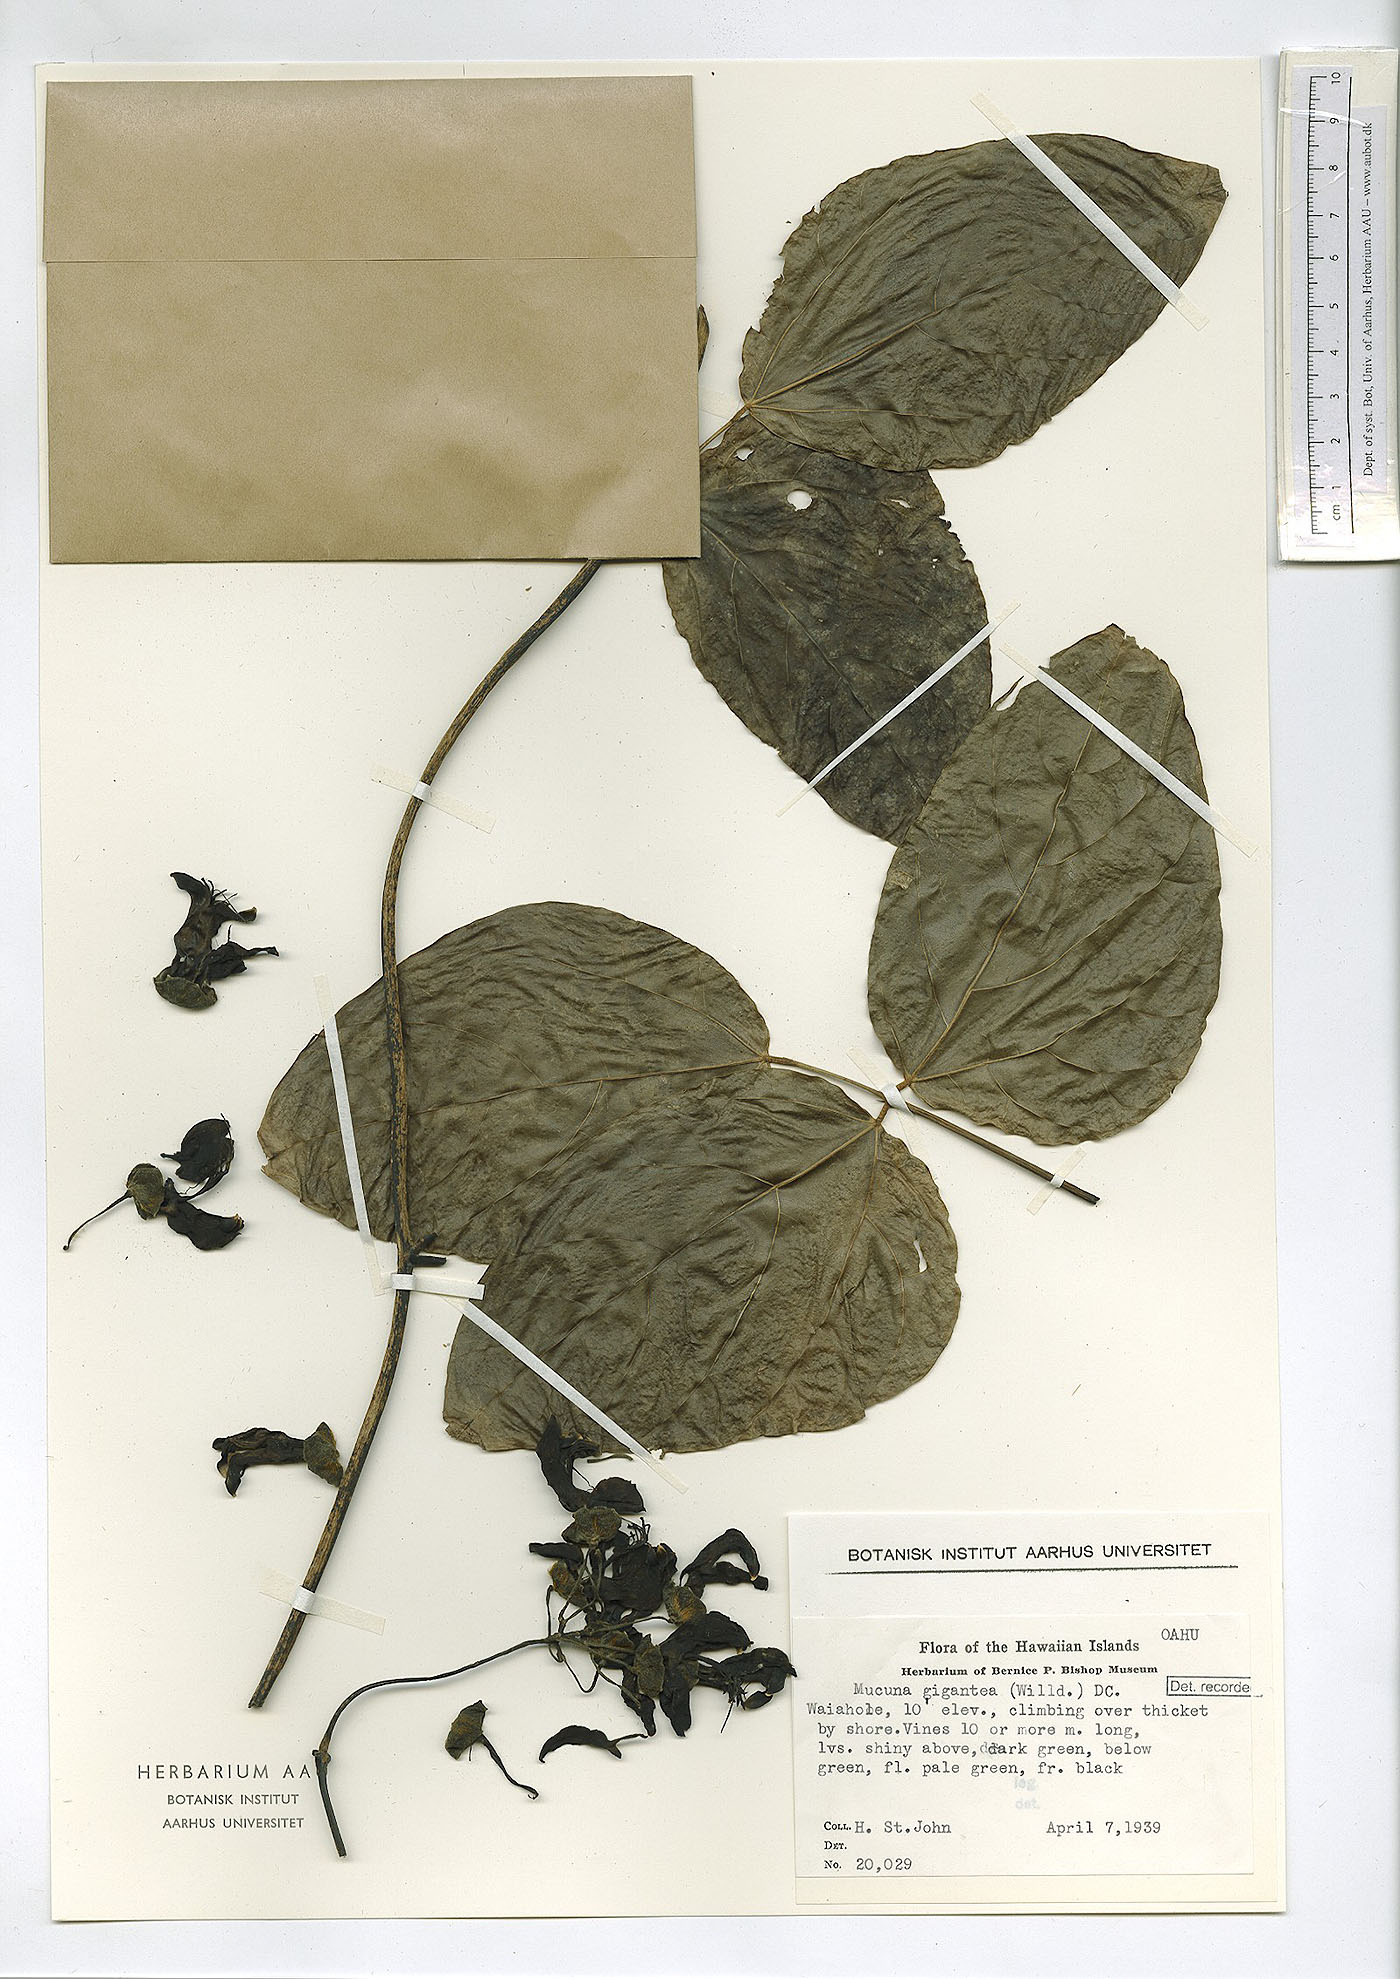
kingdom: Plantae
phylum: Tracheophyta
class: Magnoliopsida
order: Fabales
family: Fabaceae
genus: Mucuna
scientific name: Mucuna gigantea
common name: Black-bean
